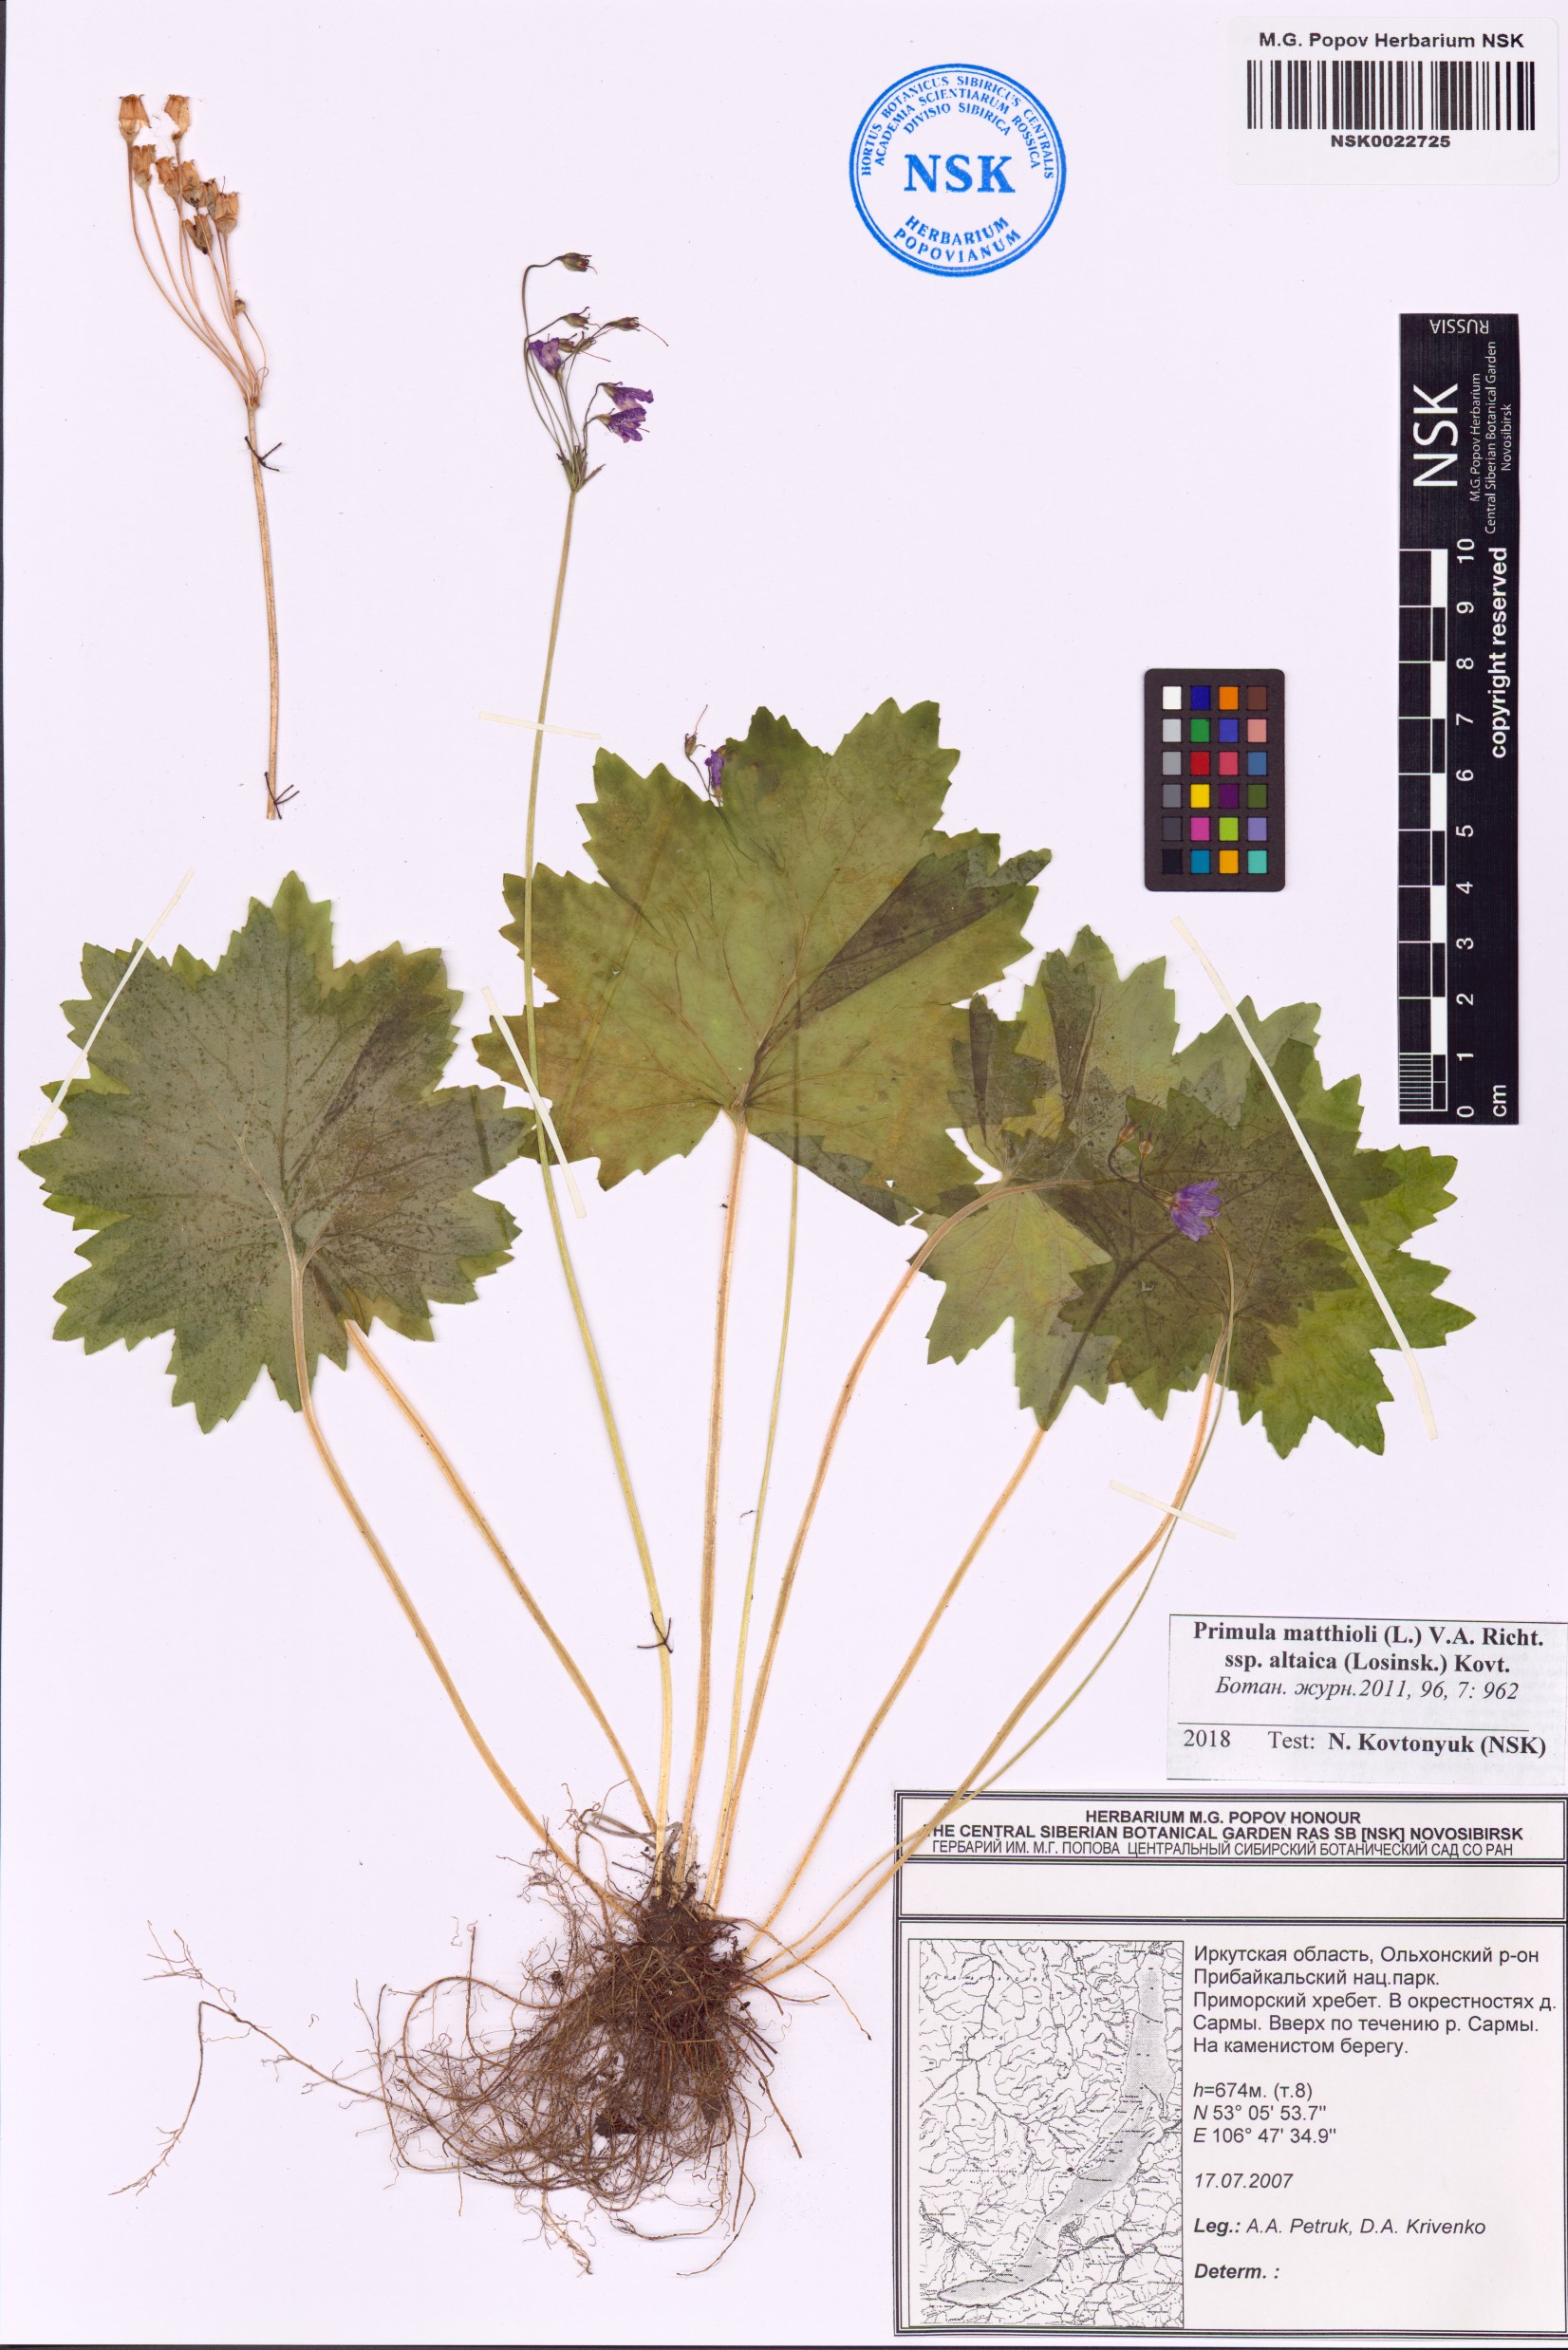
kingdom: Plantae
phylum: Tracheophyta
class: Magnoliopsida
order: Ericales
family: Primulaceae
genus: Primula
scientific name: Primula matthioli
